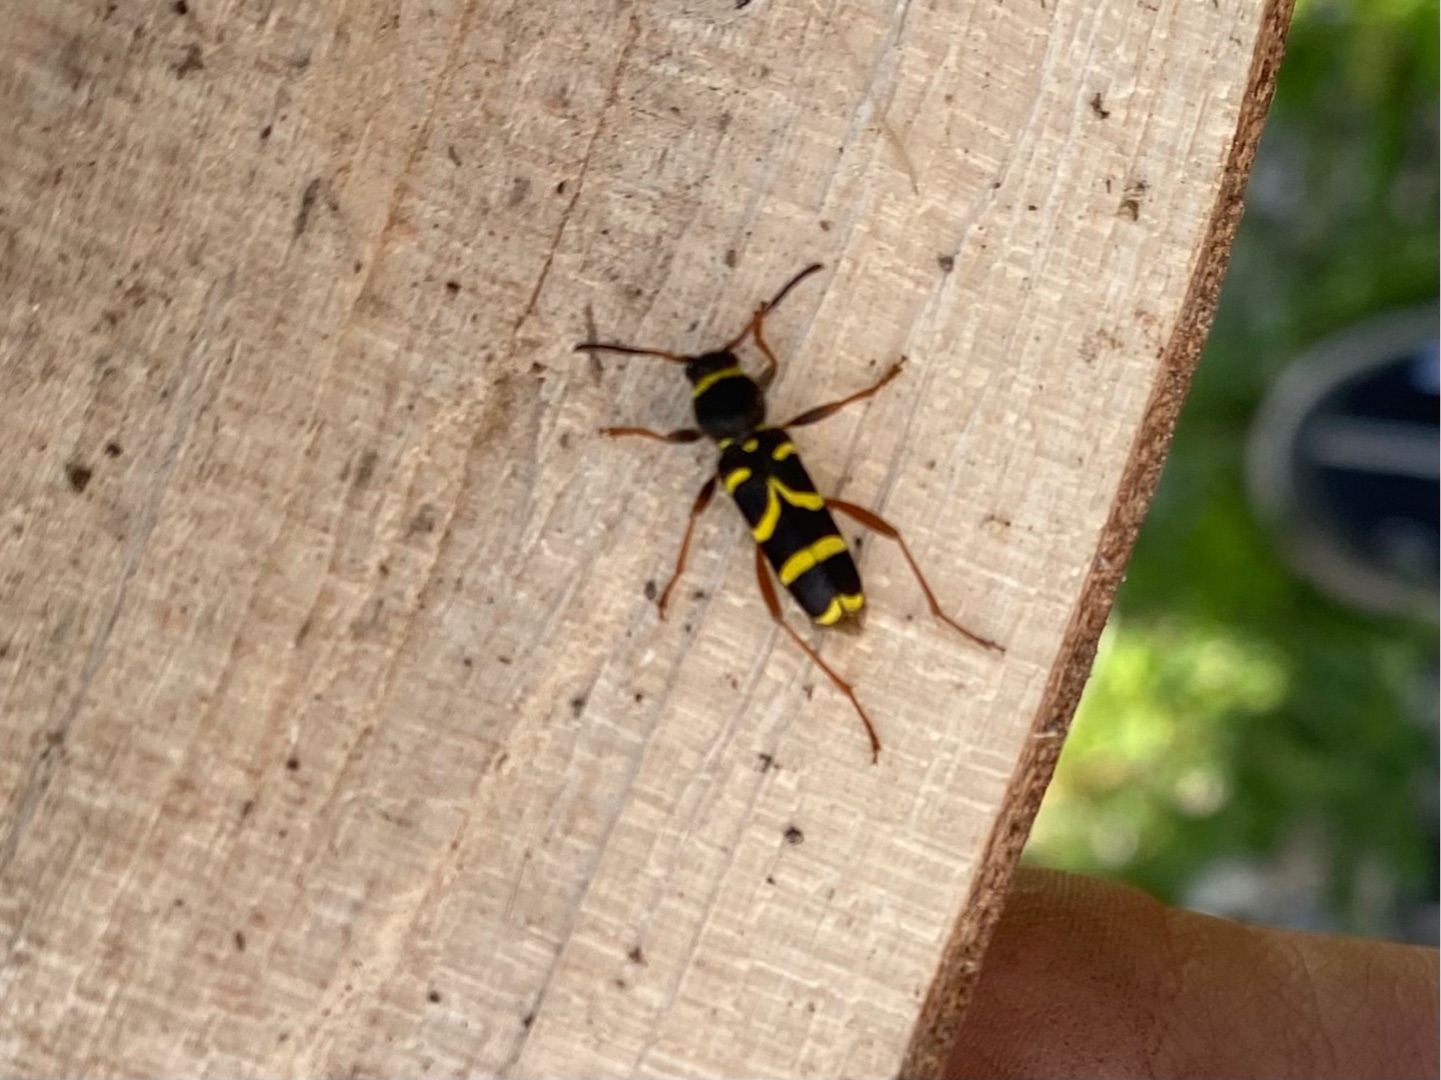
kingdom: Animalia
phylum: Arthropoda
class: Insecta
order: Coleoptera
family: Cerambycidae
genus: Clytus
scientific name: Clytus arietis
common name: Lille hvepsebuk
